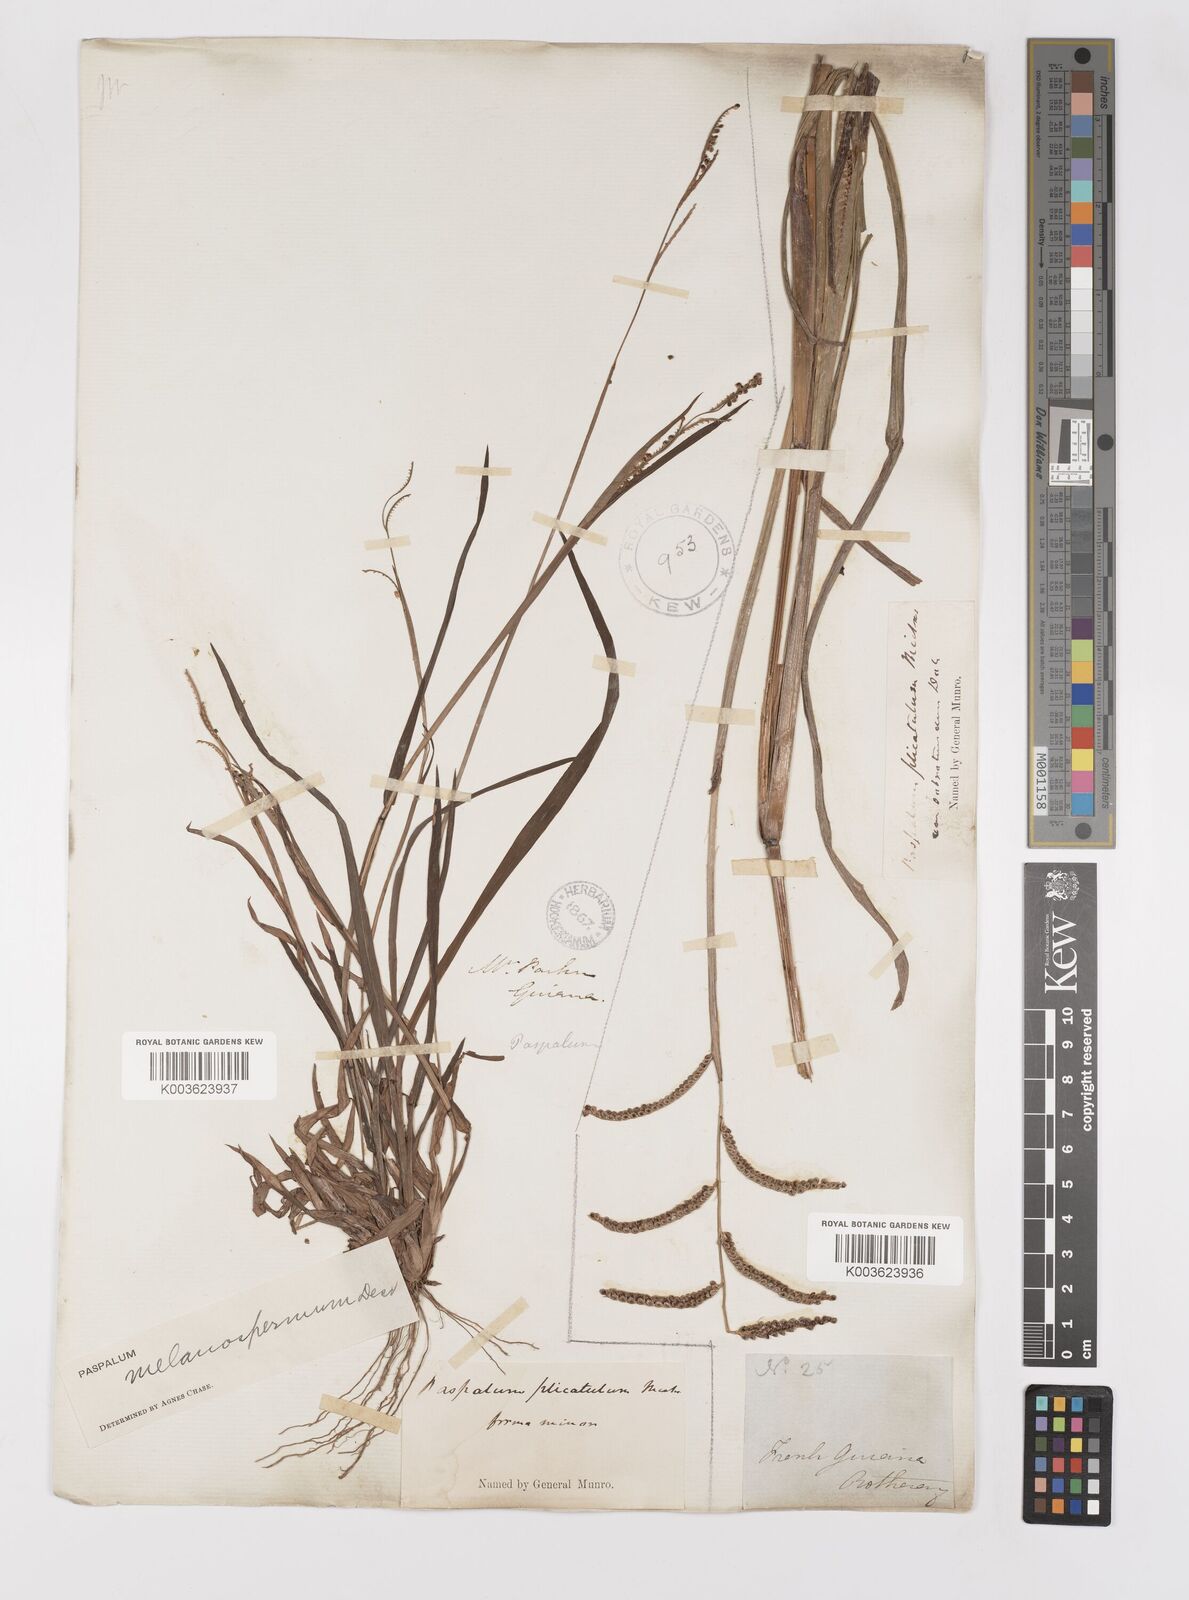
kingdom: Plantae
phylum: Tracheophyta
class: Liliopsida
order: Poales
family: Poaceae
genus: Paspalum
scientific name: Paspalum melanospermum
